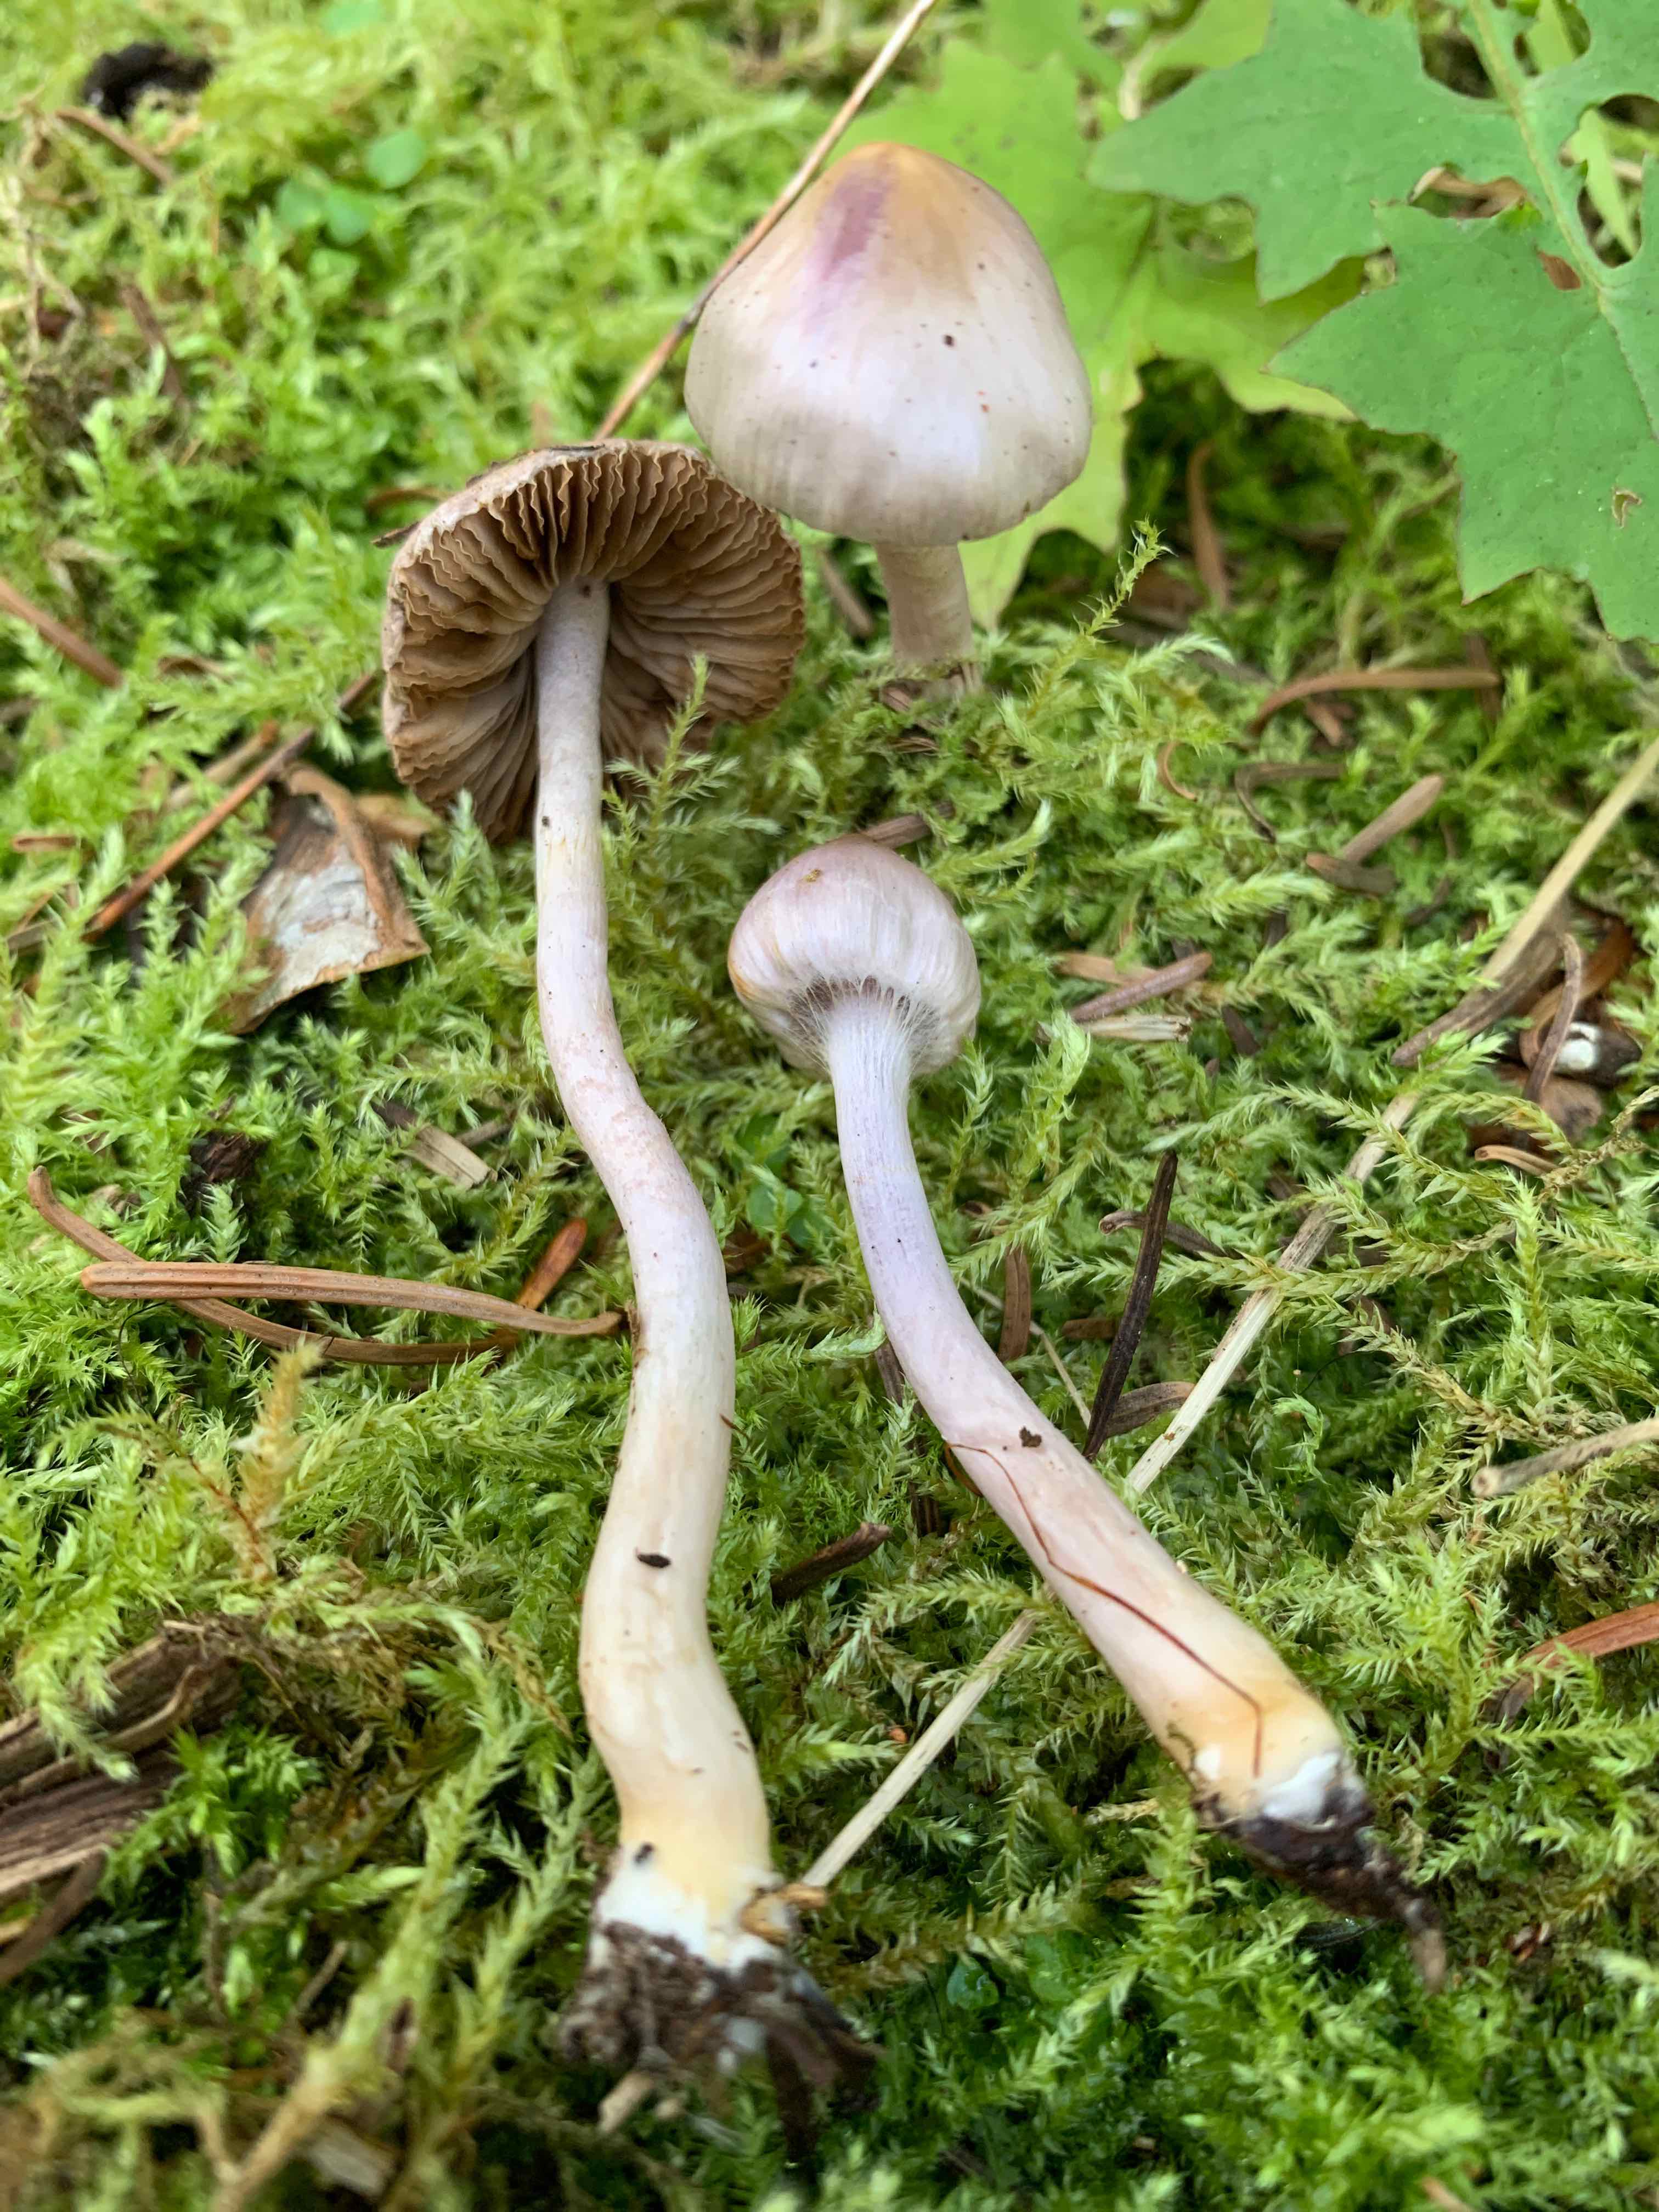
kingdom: Fungi
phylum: Basidiomycota
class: Agaricomycetes
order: Agaricales
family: Inocybaceae
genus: Inocybe
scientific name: Inocybe geophylla
